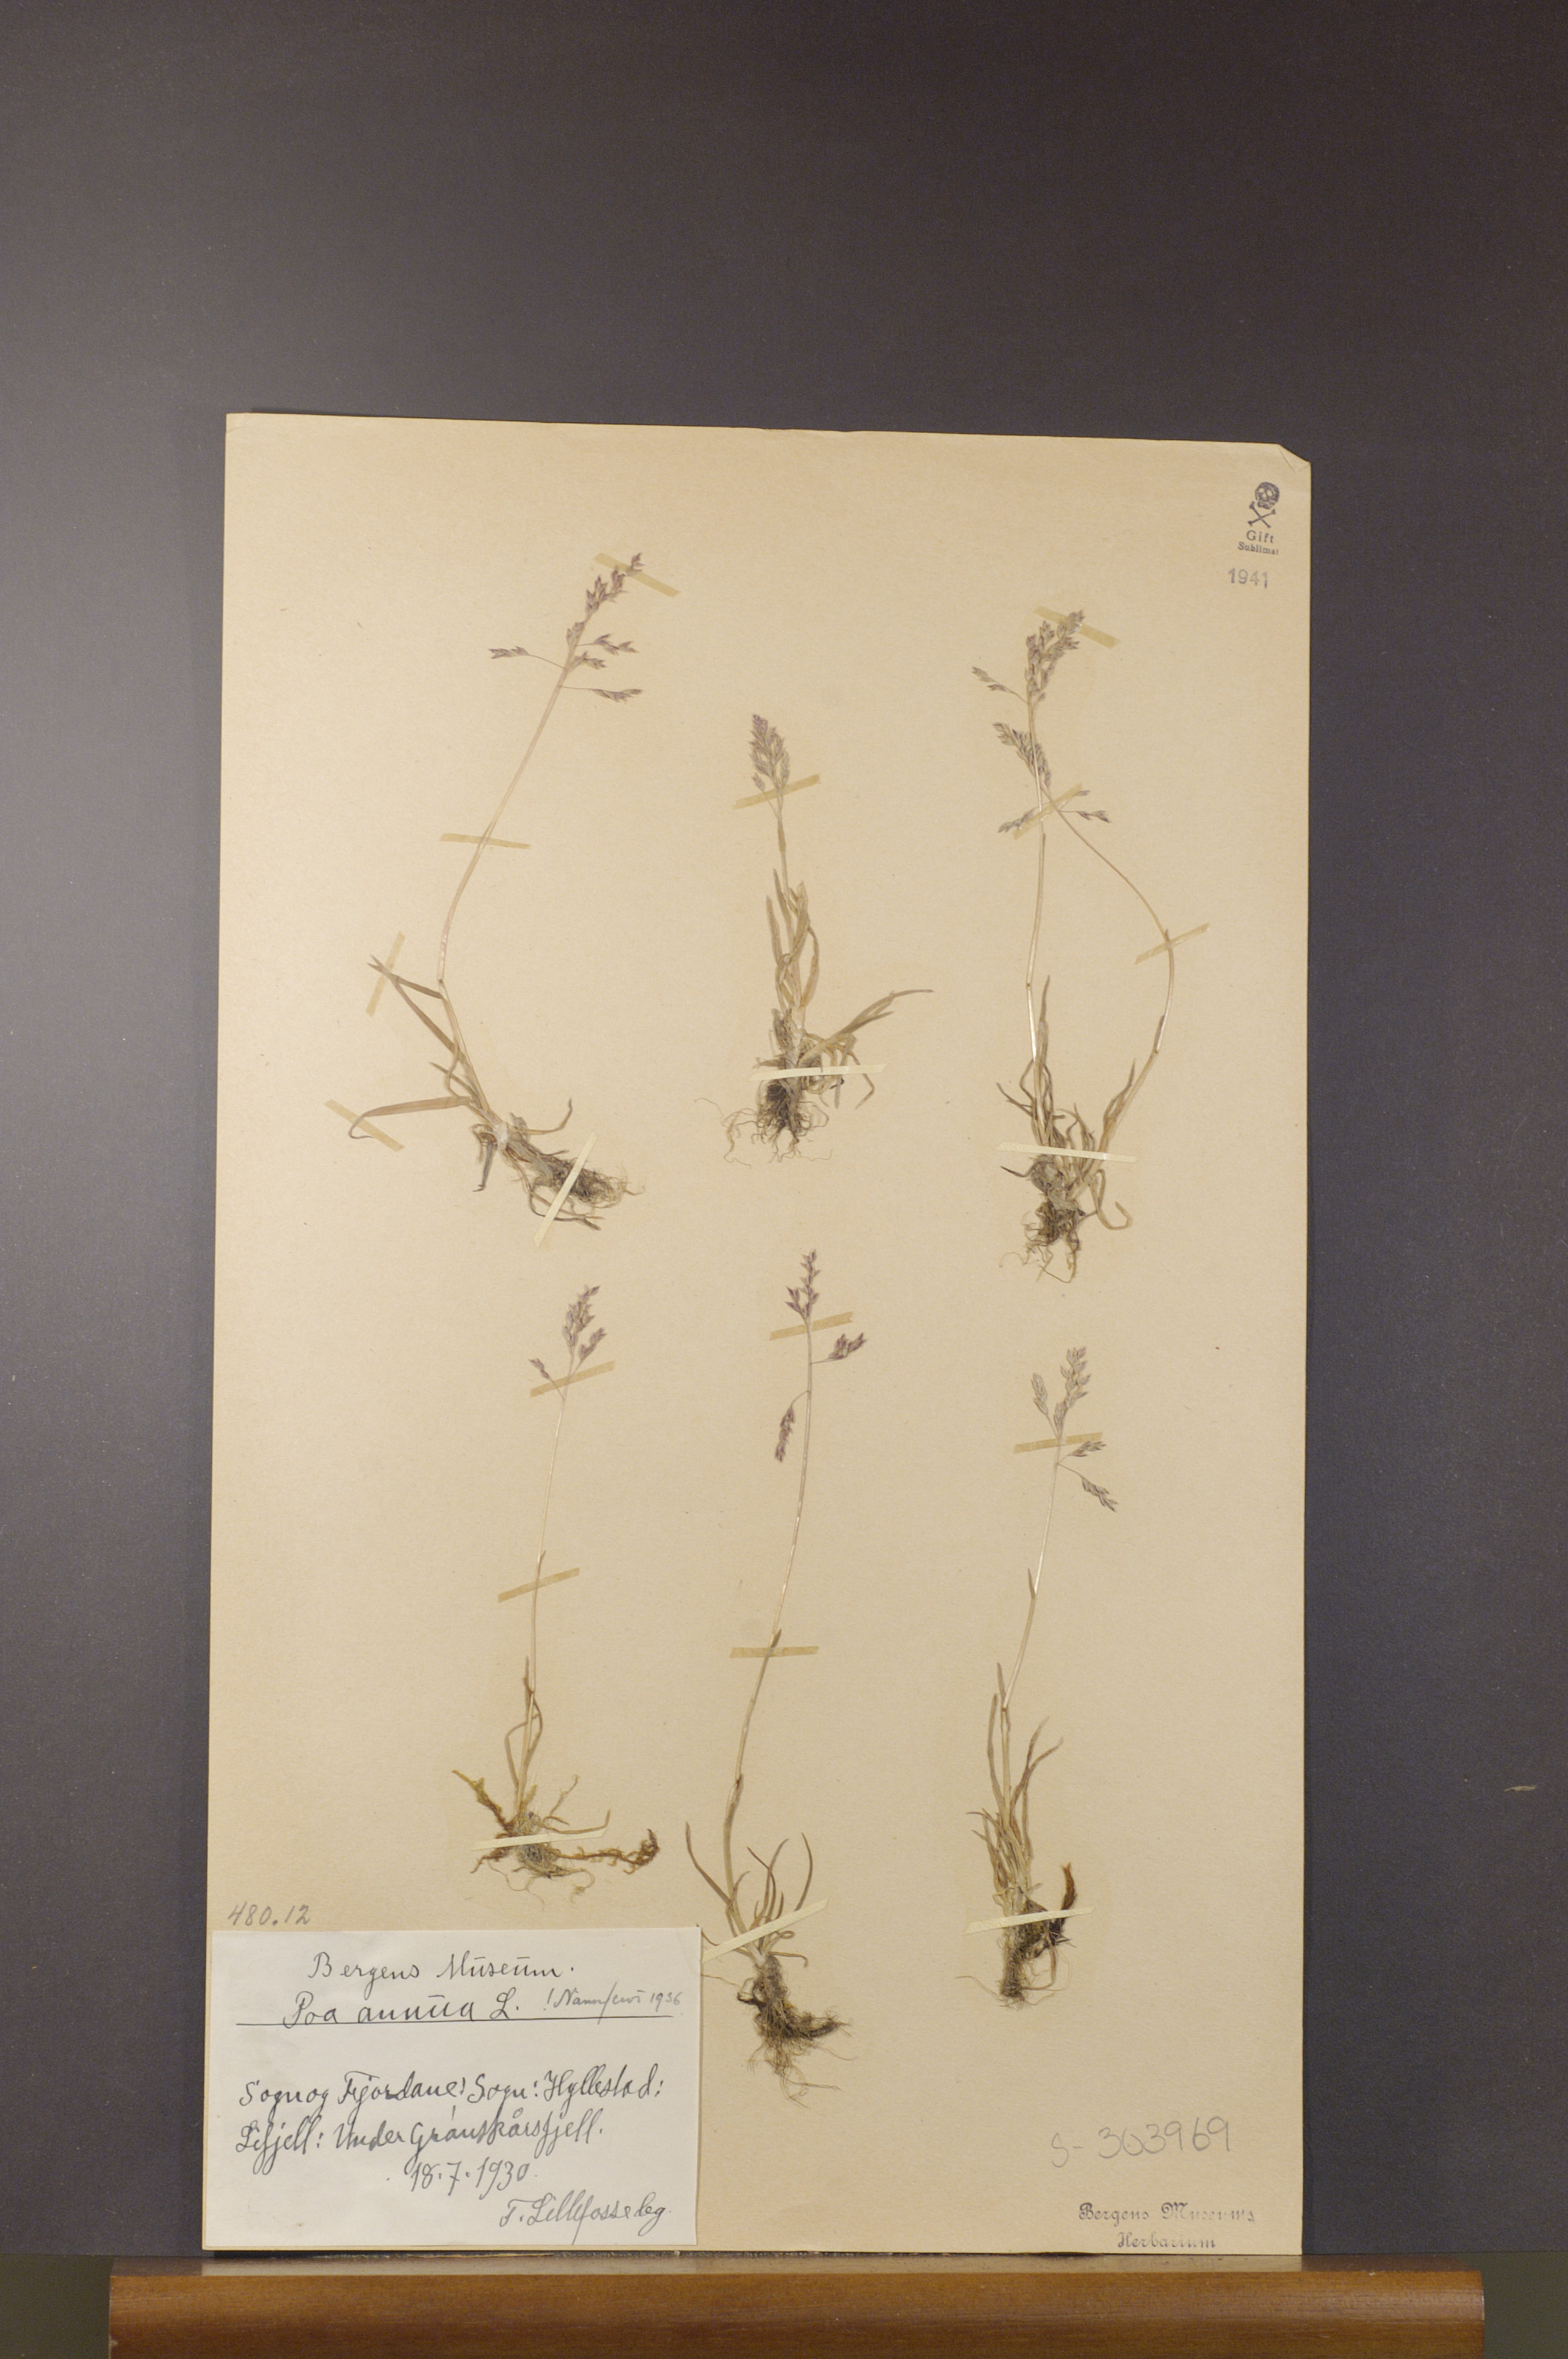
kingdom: Plantae
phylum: Tracheophyta
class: Liliopsida
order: Poales
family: Poaceae
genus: Poa
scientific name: Poa annua
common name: Annual bluegrass
